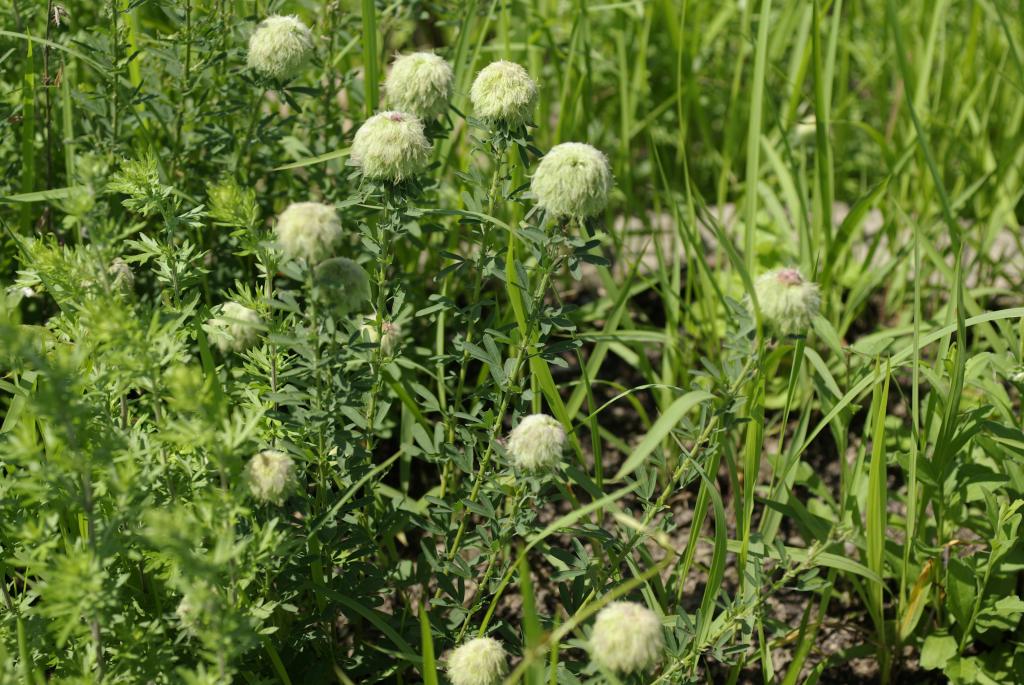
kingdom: Plantae
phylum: Tracheophyta
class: Magnoliopsida
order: Fabales
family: Fabaceae
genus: Lespedeza
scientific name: Lespedeza cuneata
